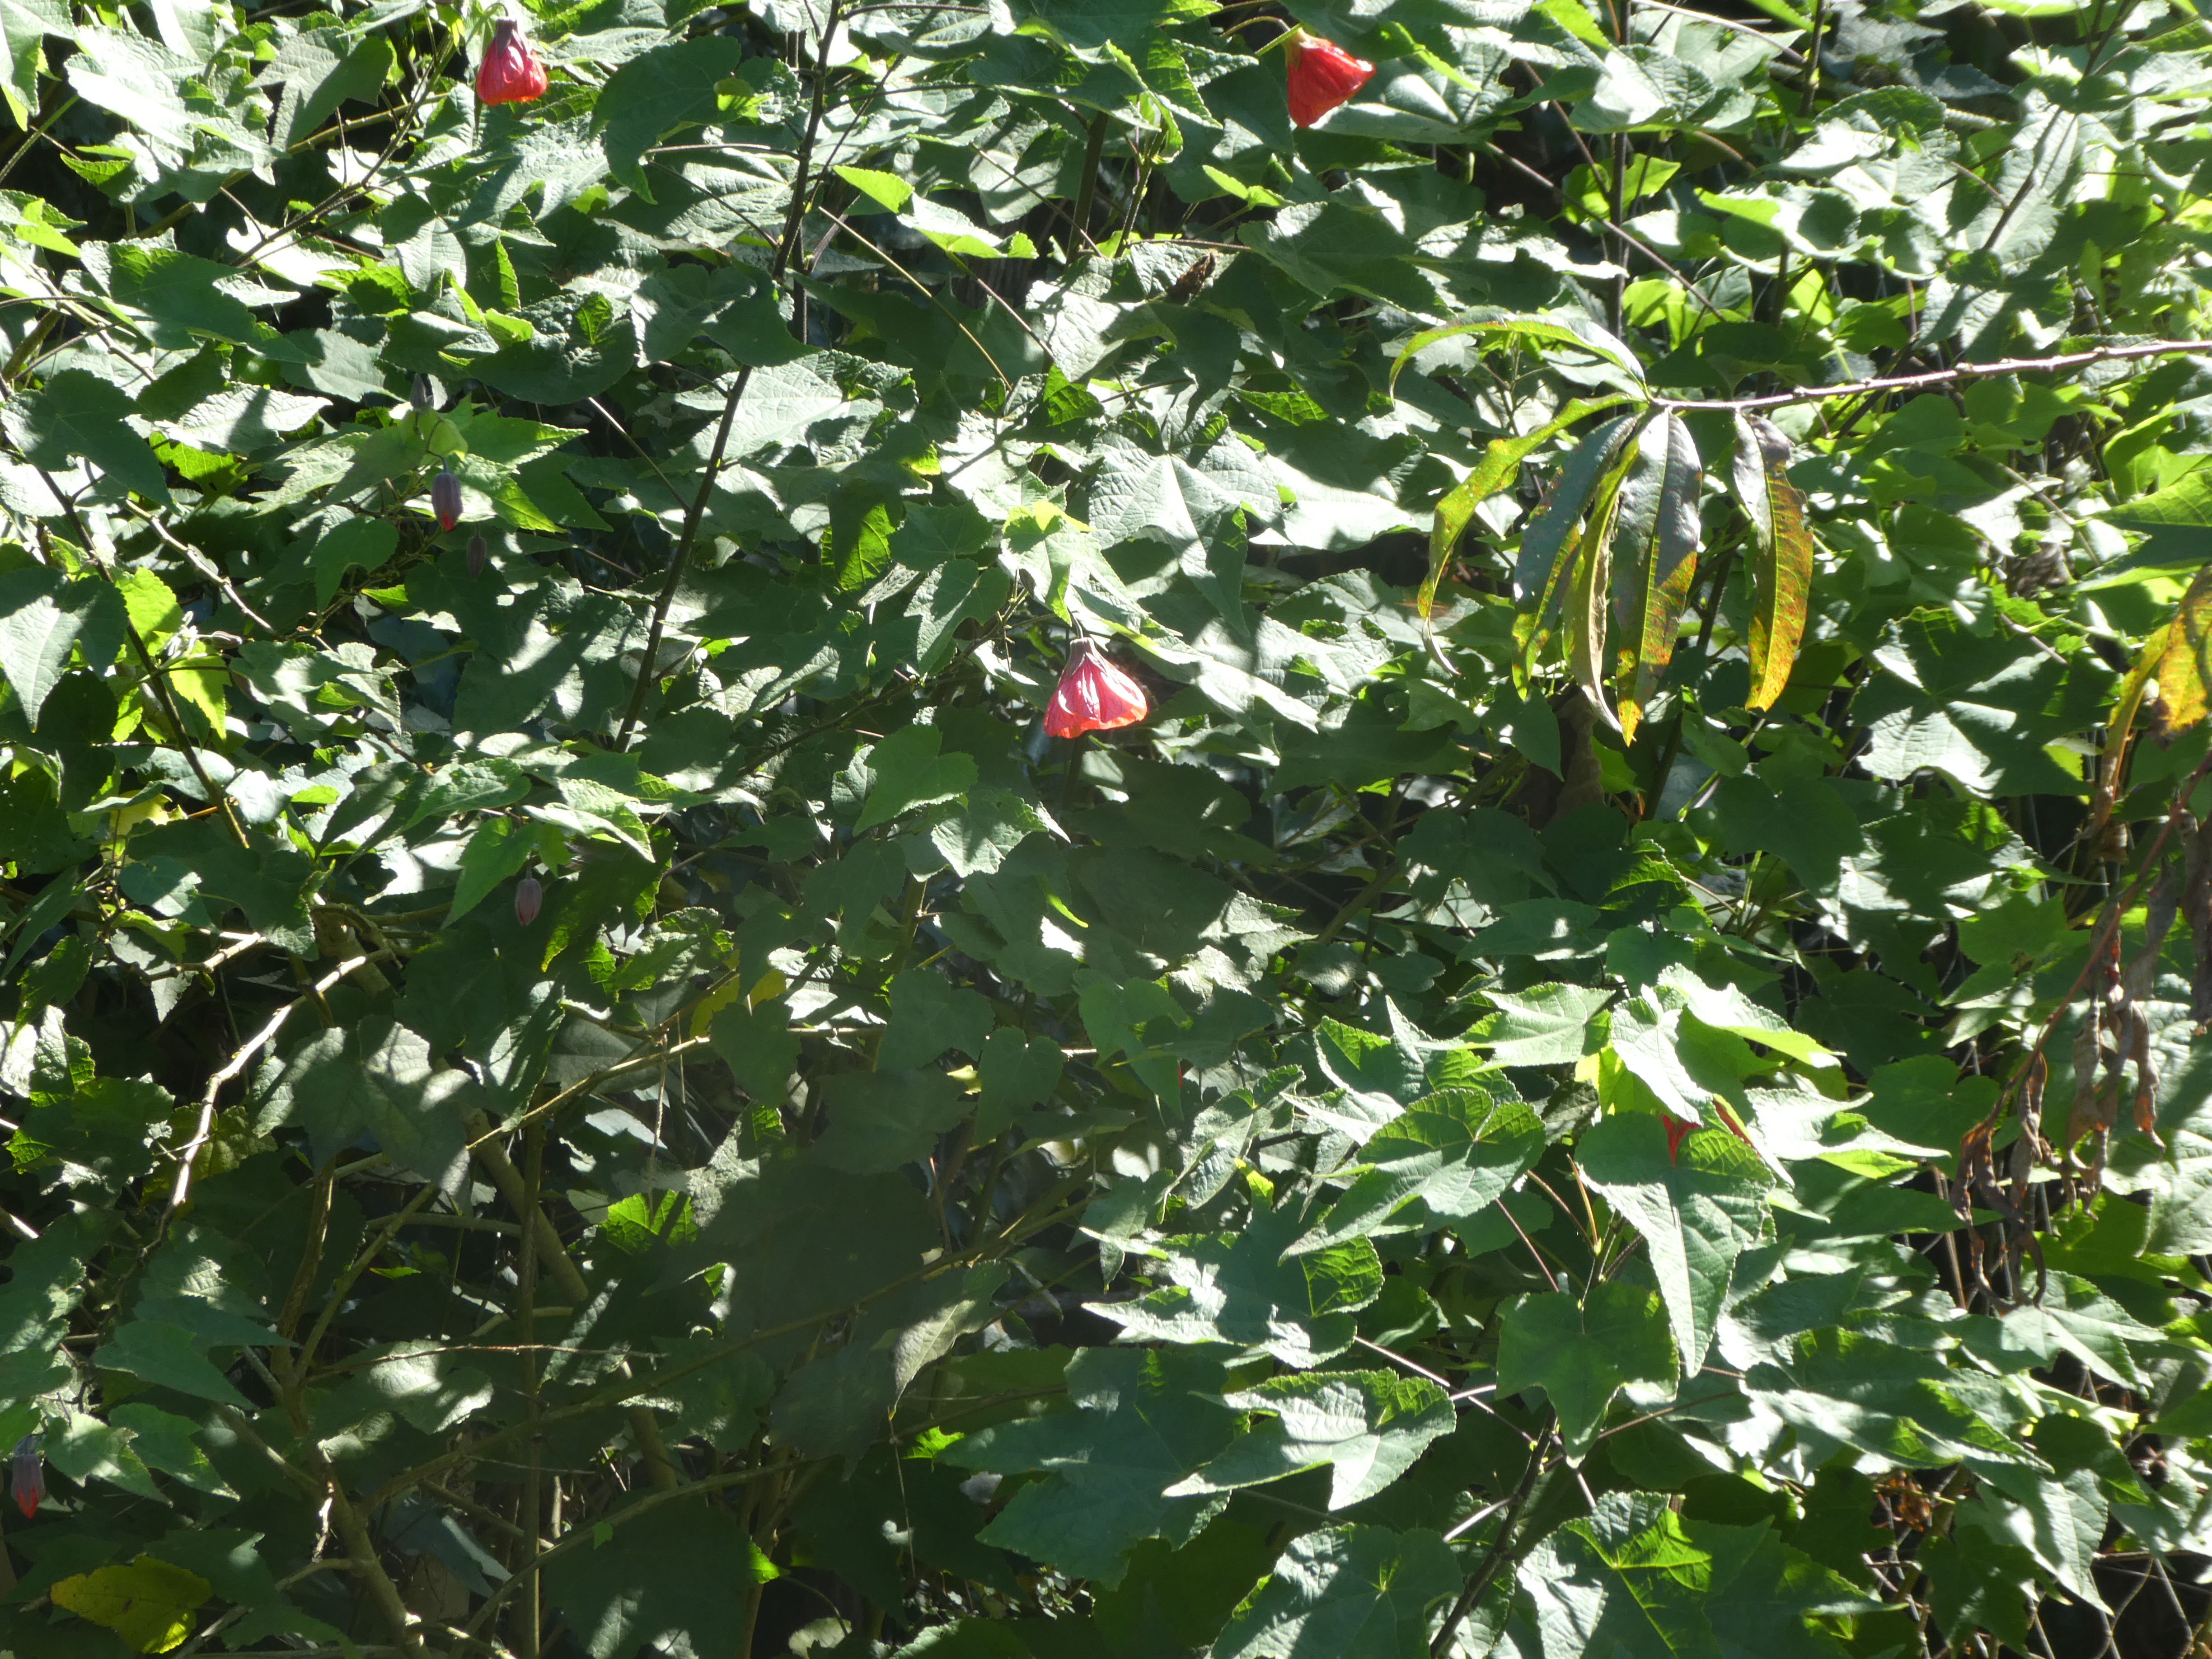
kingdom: Plantae
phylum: Tracheophyta
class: Magnoliopsida
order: Malvales
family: Malvaceae
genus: Abutilon
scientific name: Abutilon
